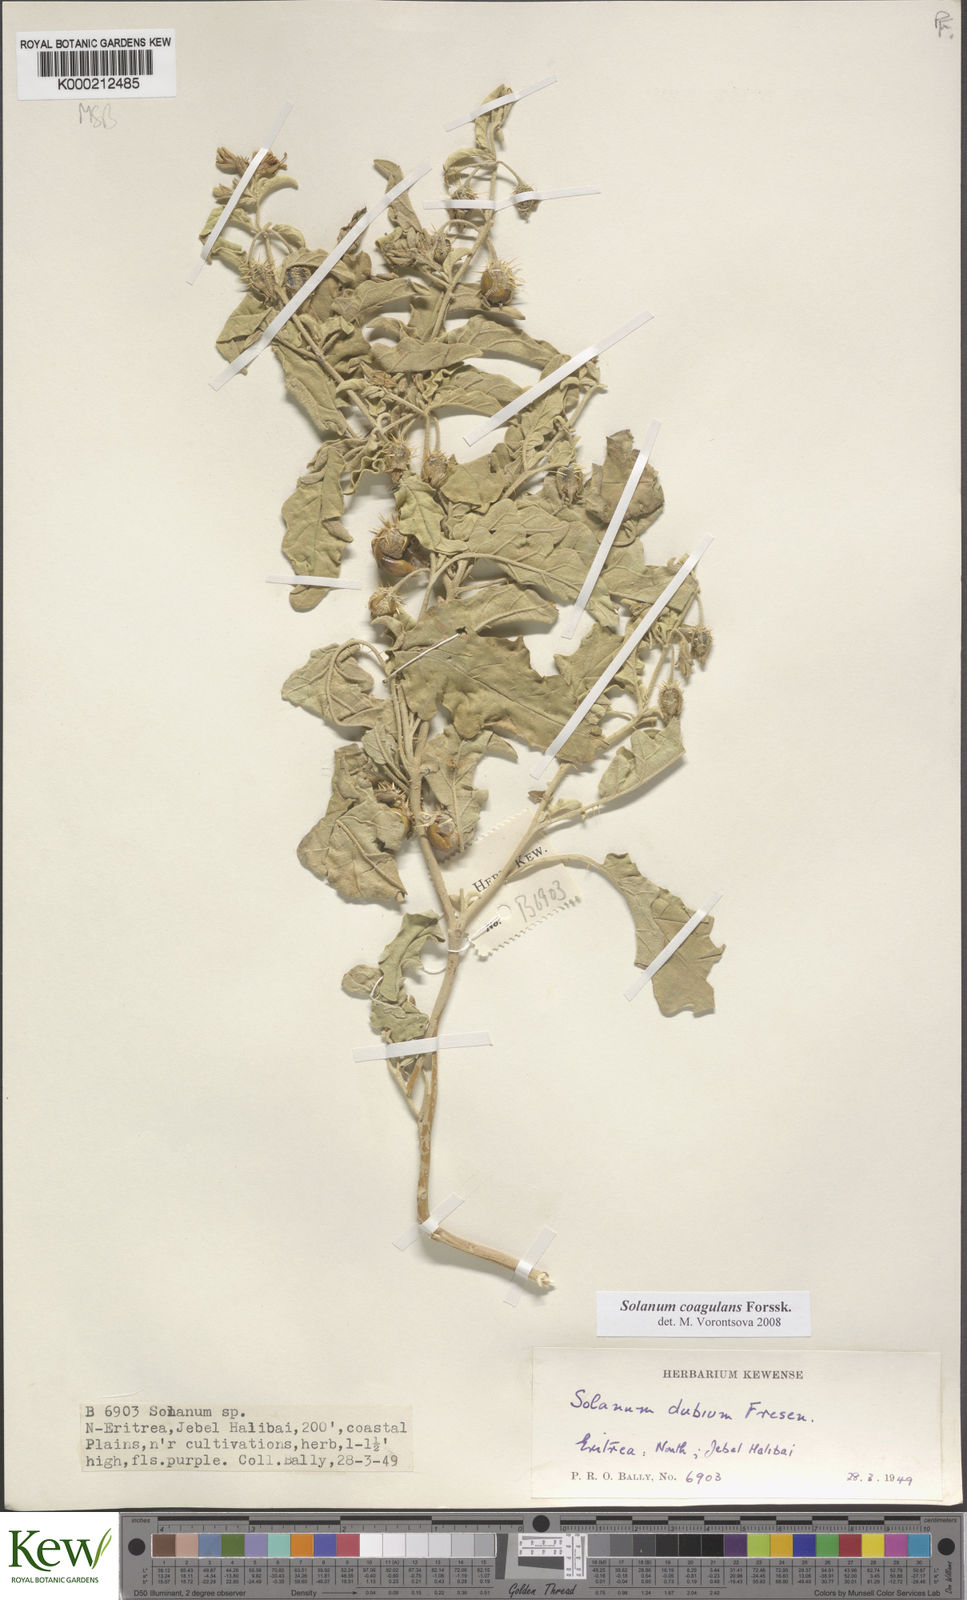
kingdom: Plantae
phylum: Tracheophyta
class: Magnoliopsida
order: Solanales
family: Solanaceae
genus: Solanum
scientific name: Solanum coagulans
